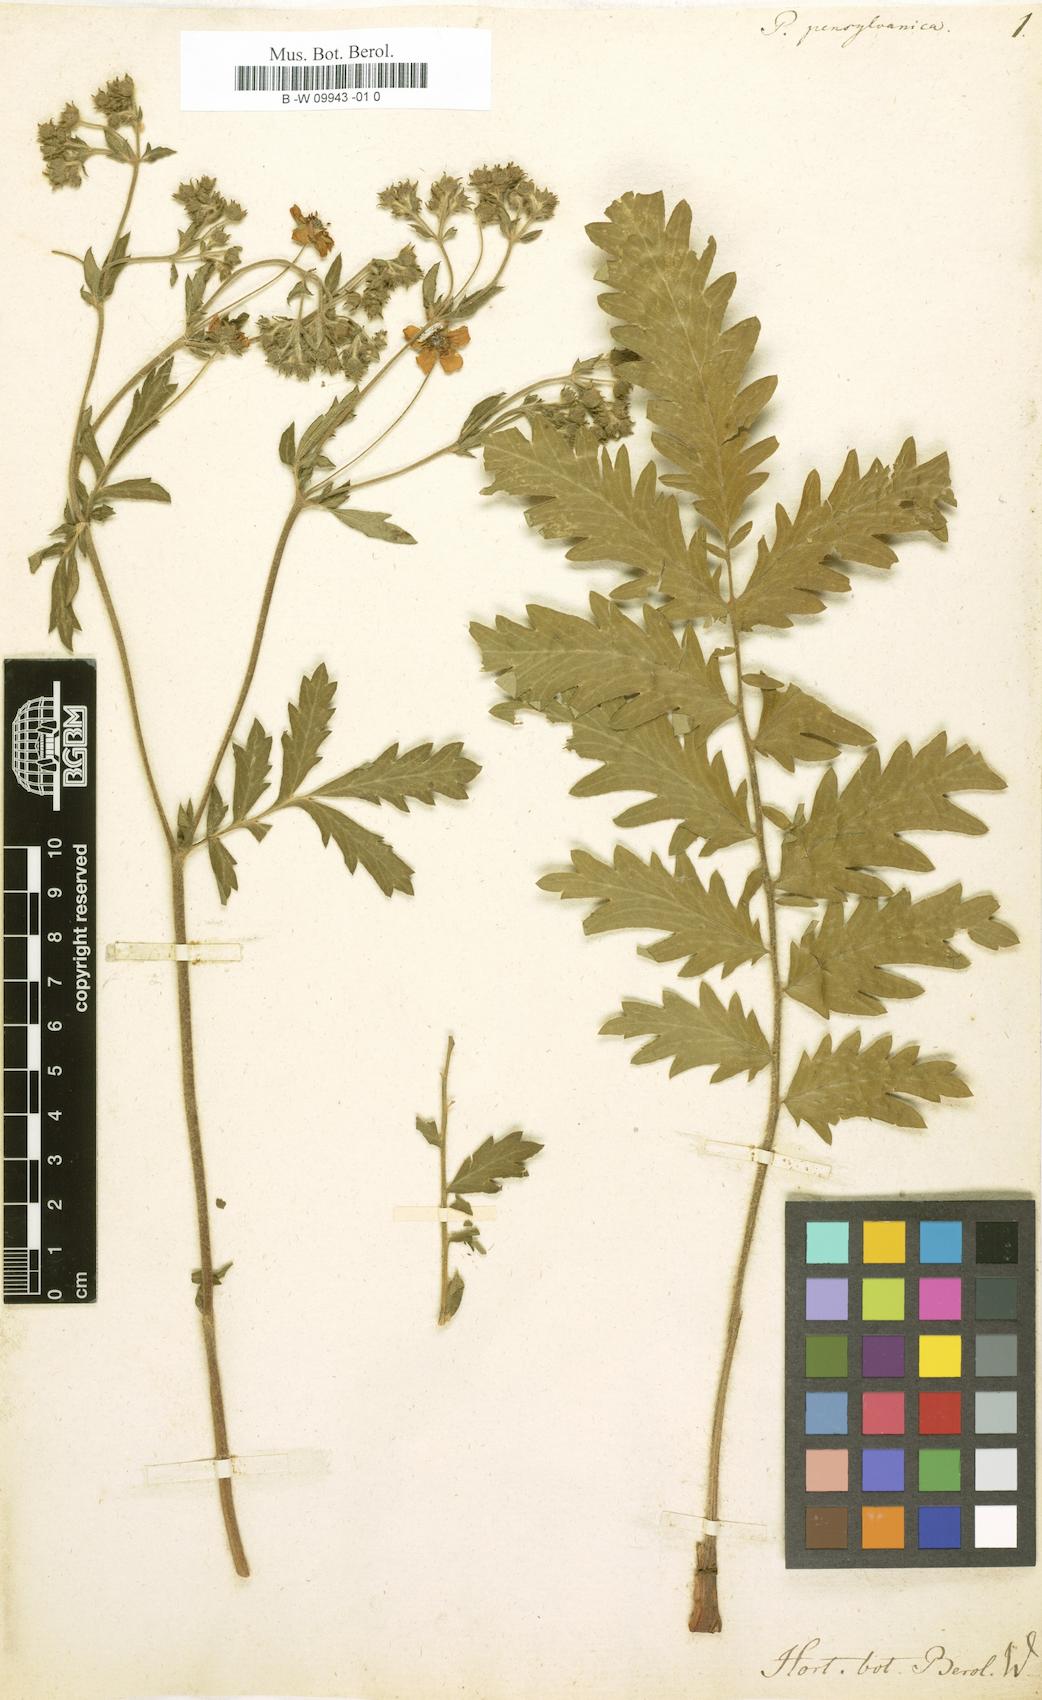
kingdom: Plantae
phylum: Tracheophyta
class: Magnoliopsida
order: Rosales
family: Rosaceae
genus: Potentilla
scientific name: Potentilla pensylvanica
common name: Pennsylvania cinquefoil
